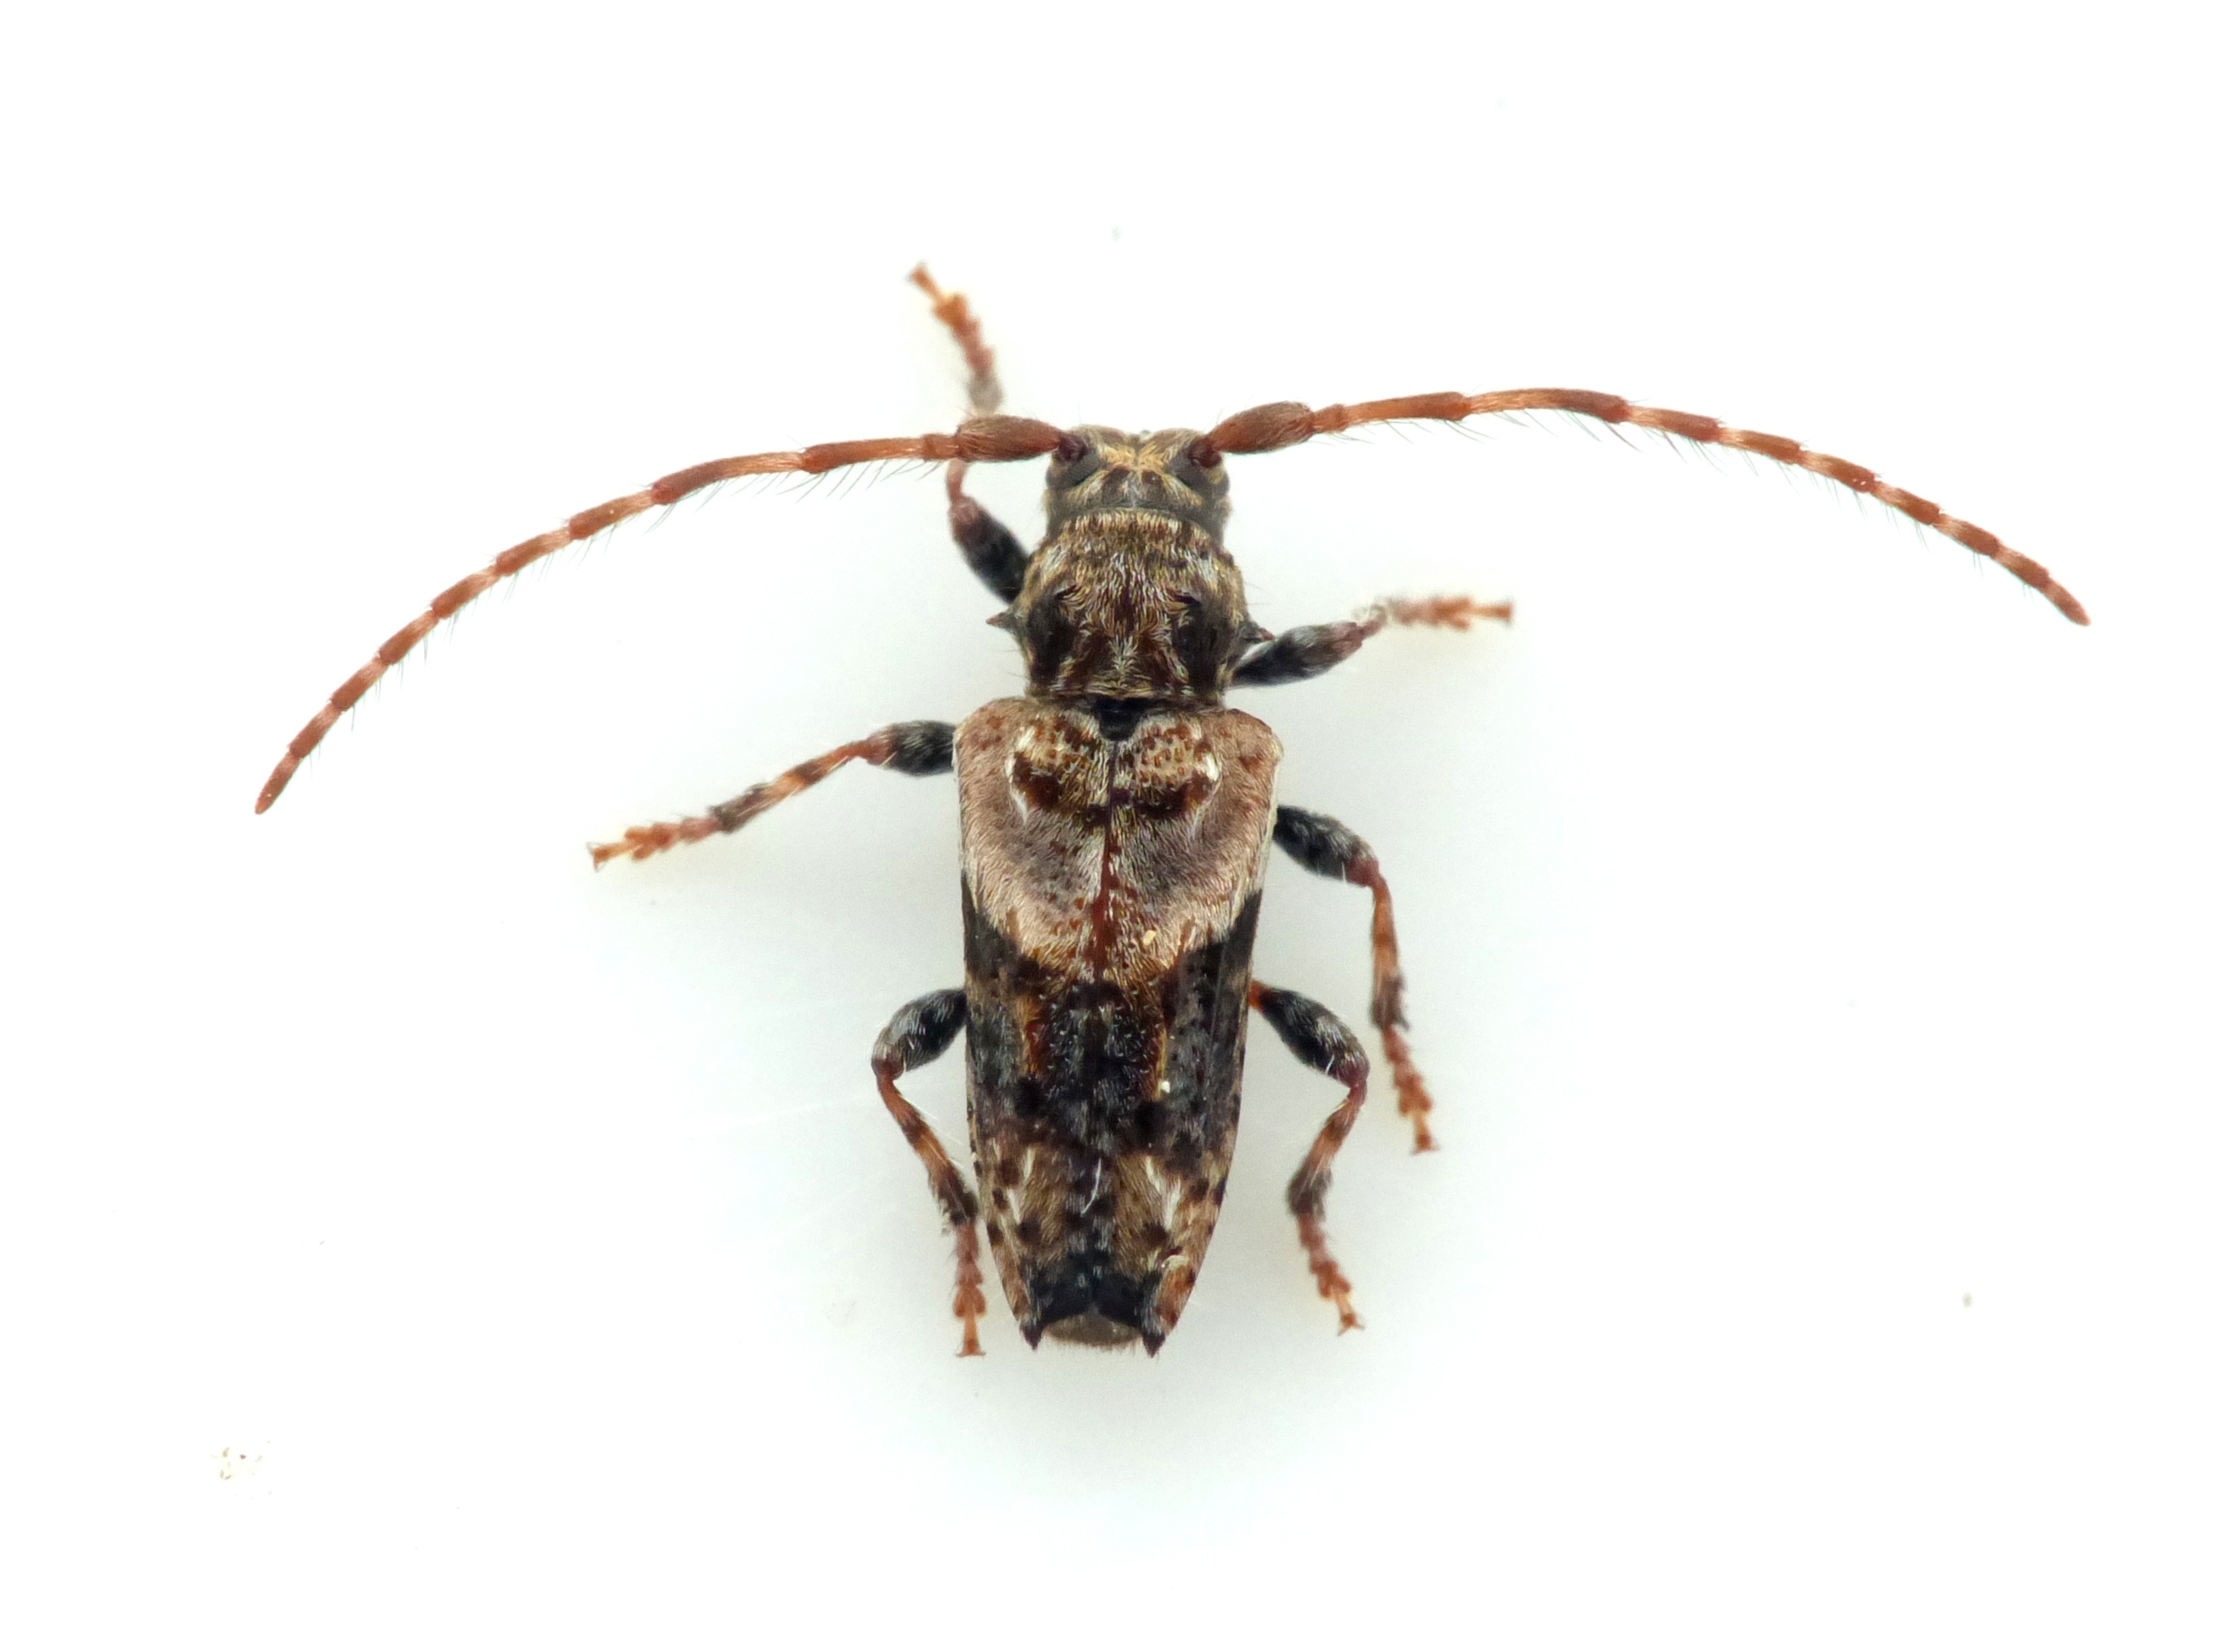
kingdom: Animalia
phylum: Arthropoda
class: Insecta
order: Coleoptera
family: Cerambycidae
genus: Pogonocherus
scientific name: Pogonocherus hispidus
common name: Løvgråbuk
